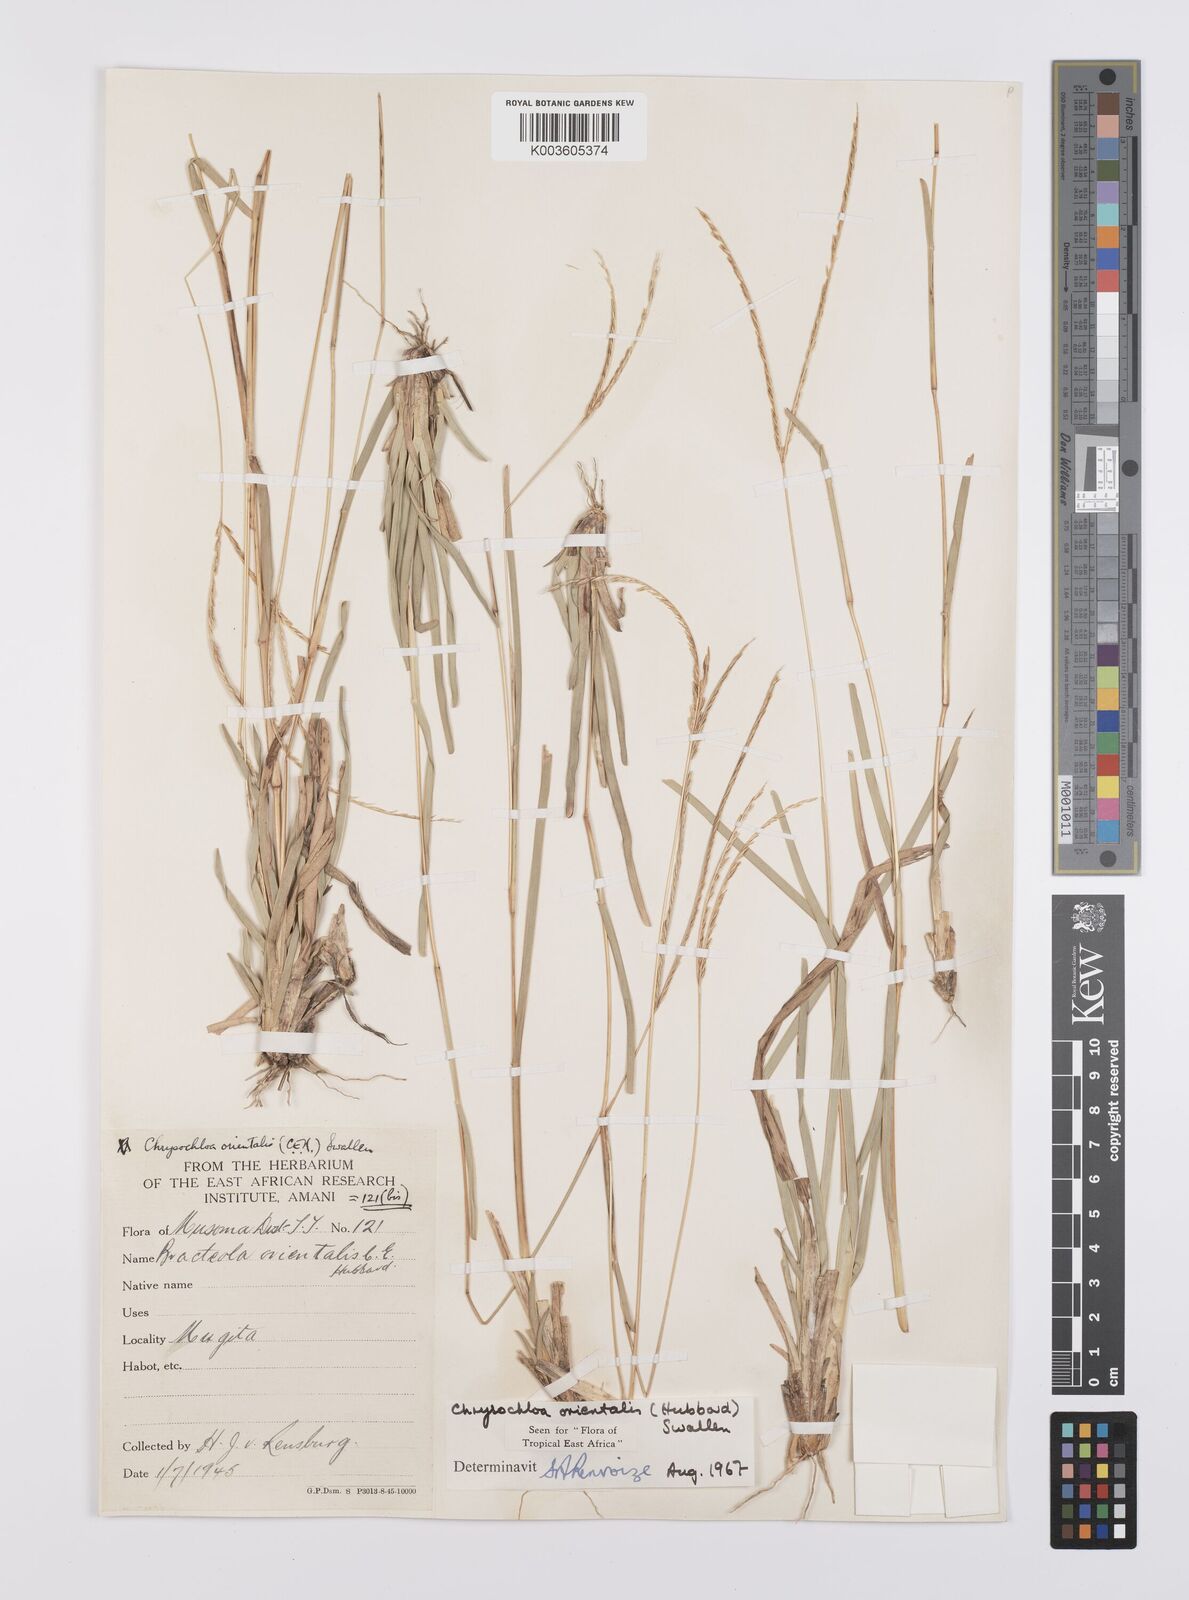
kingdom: Plantae
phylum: Tracheophyta
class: Liliopsida
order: Poales
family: Poaceae
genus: Chrysochloa
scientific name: Chrysochloa orientalis
